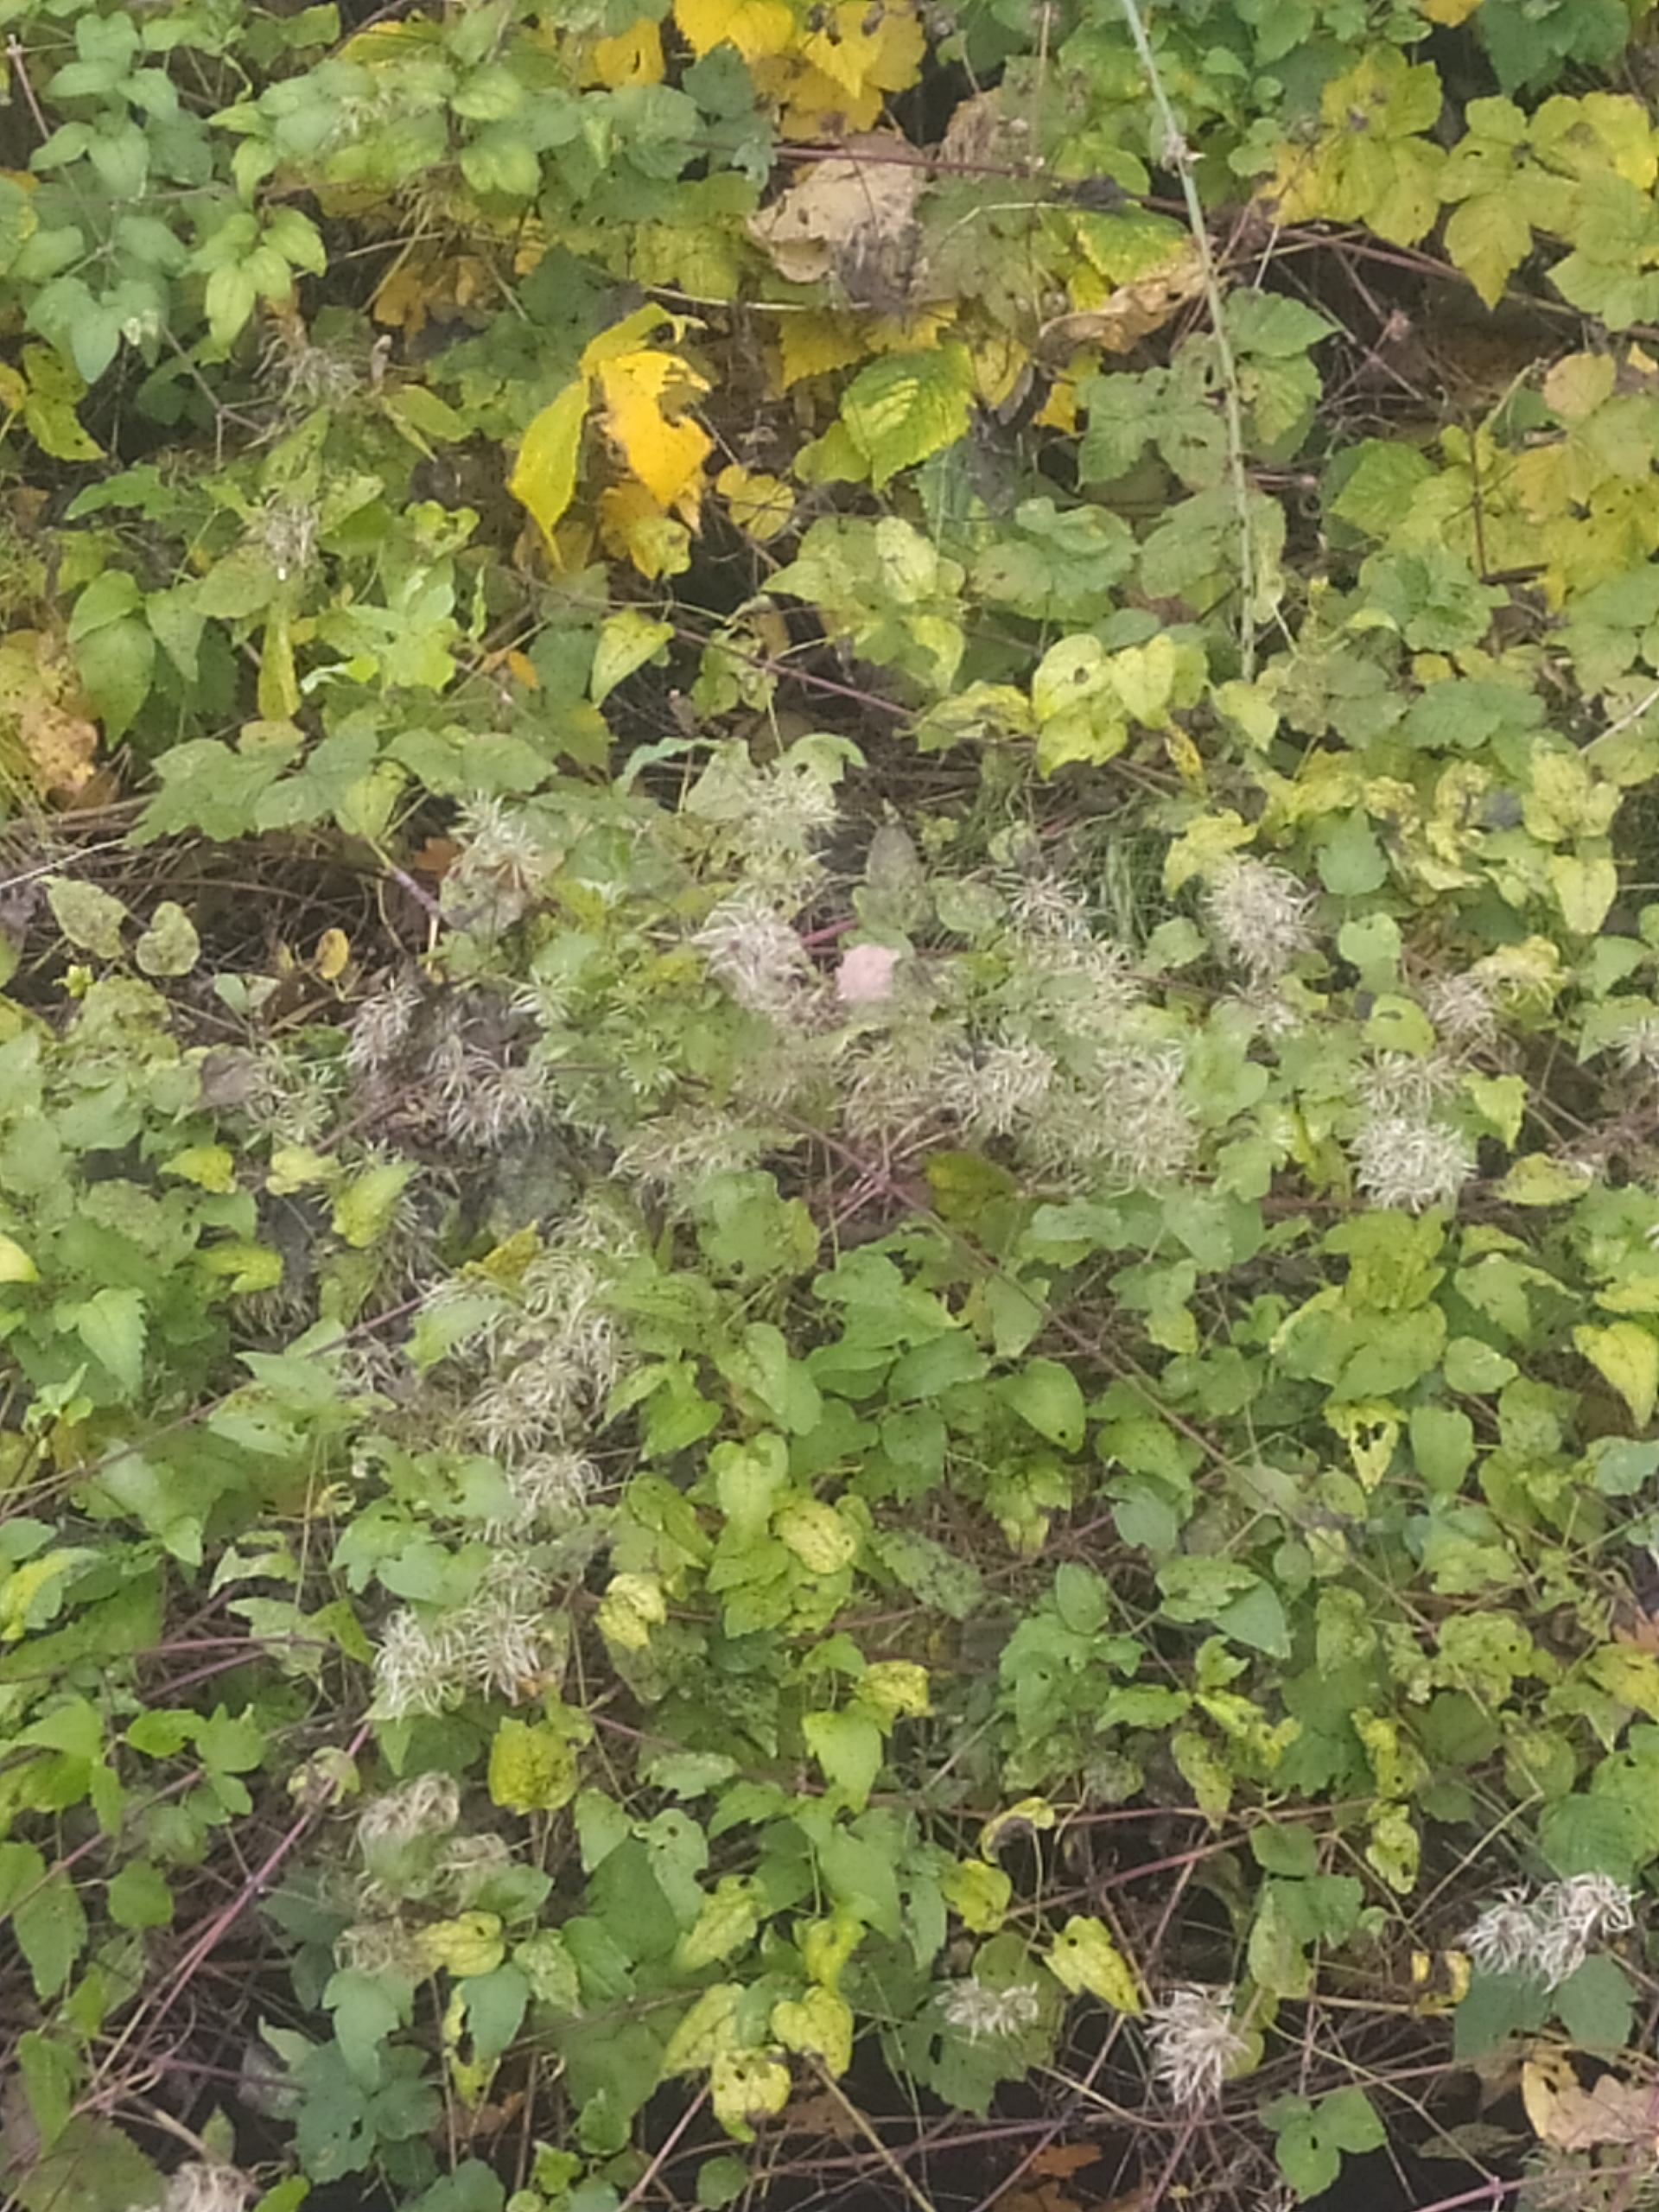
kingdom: Plantae
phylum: Tracheophyta
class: Magnoliopsida
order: Ranunculales
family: Ranunculaceae
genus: Clematis
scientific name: Clematis vitalba
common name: Skovranke
